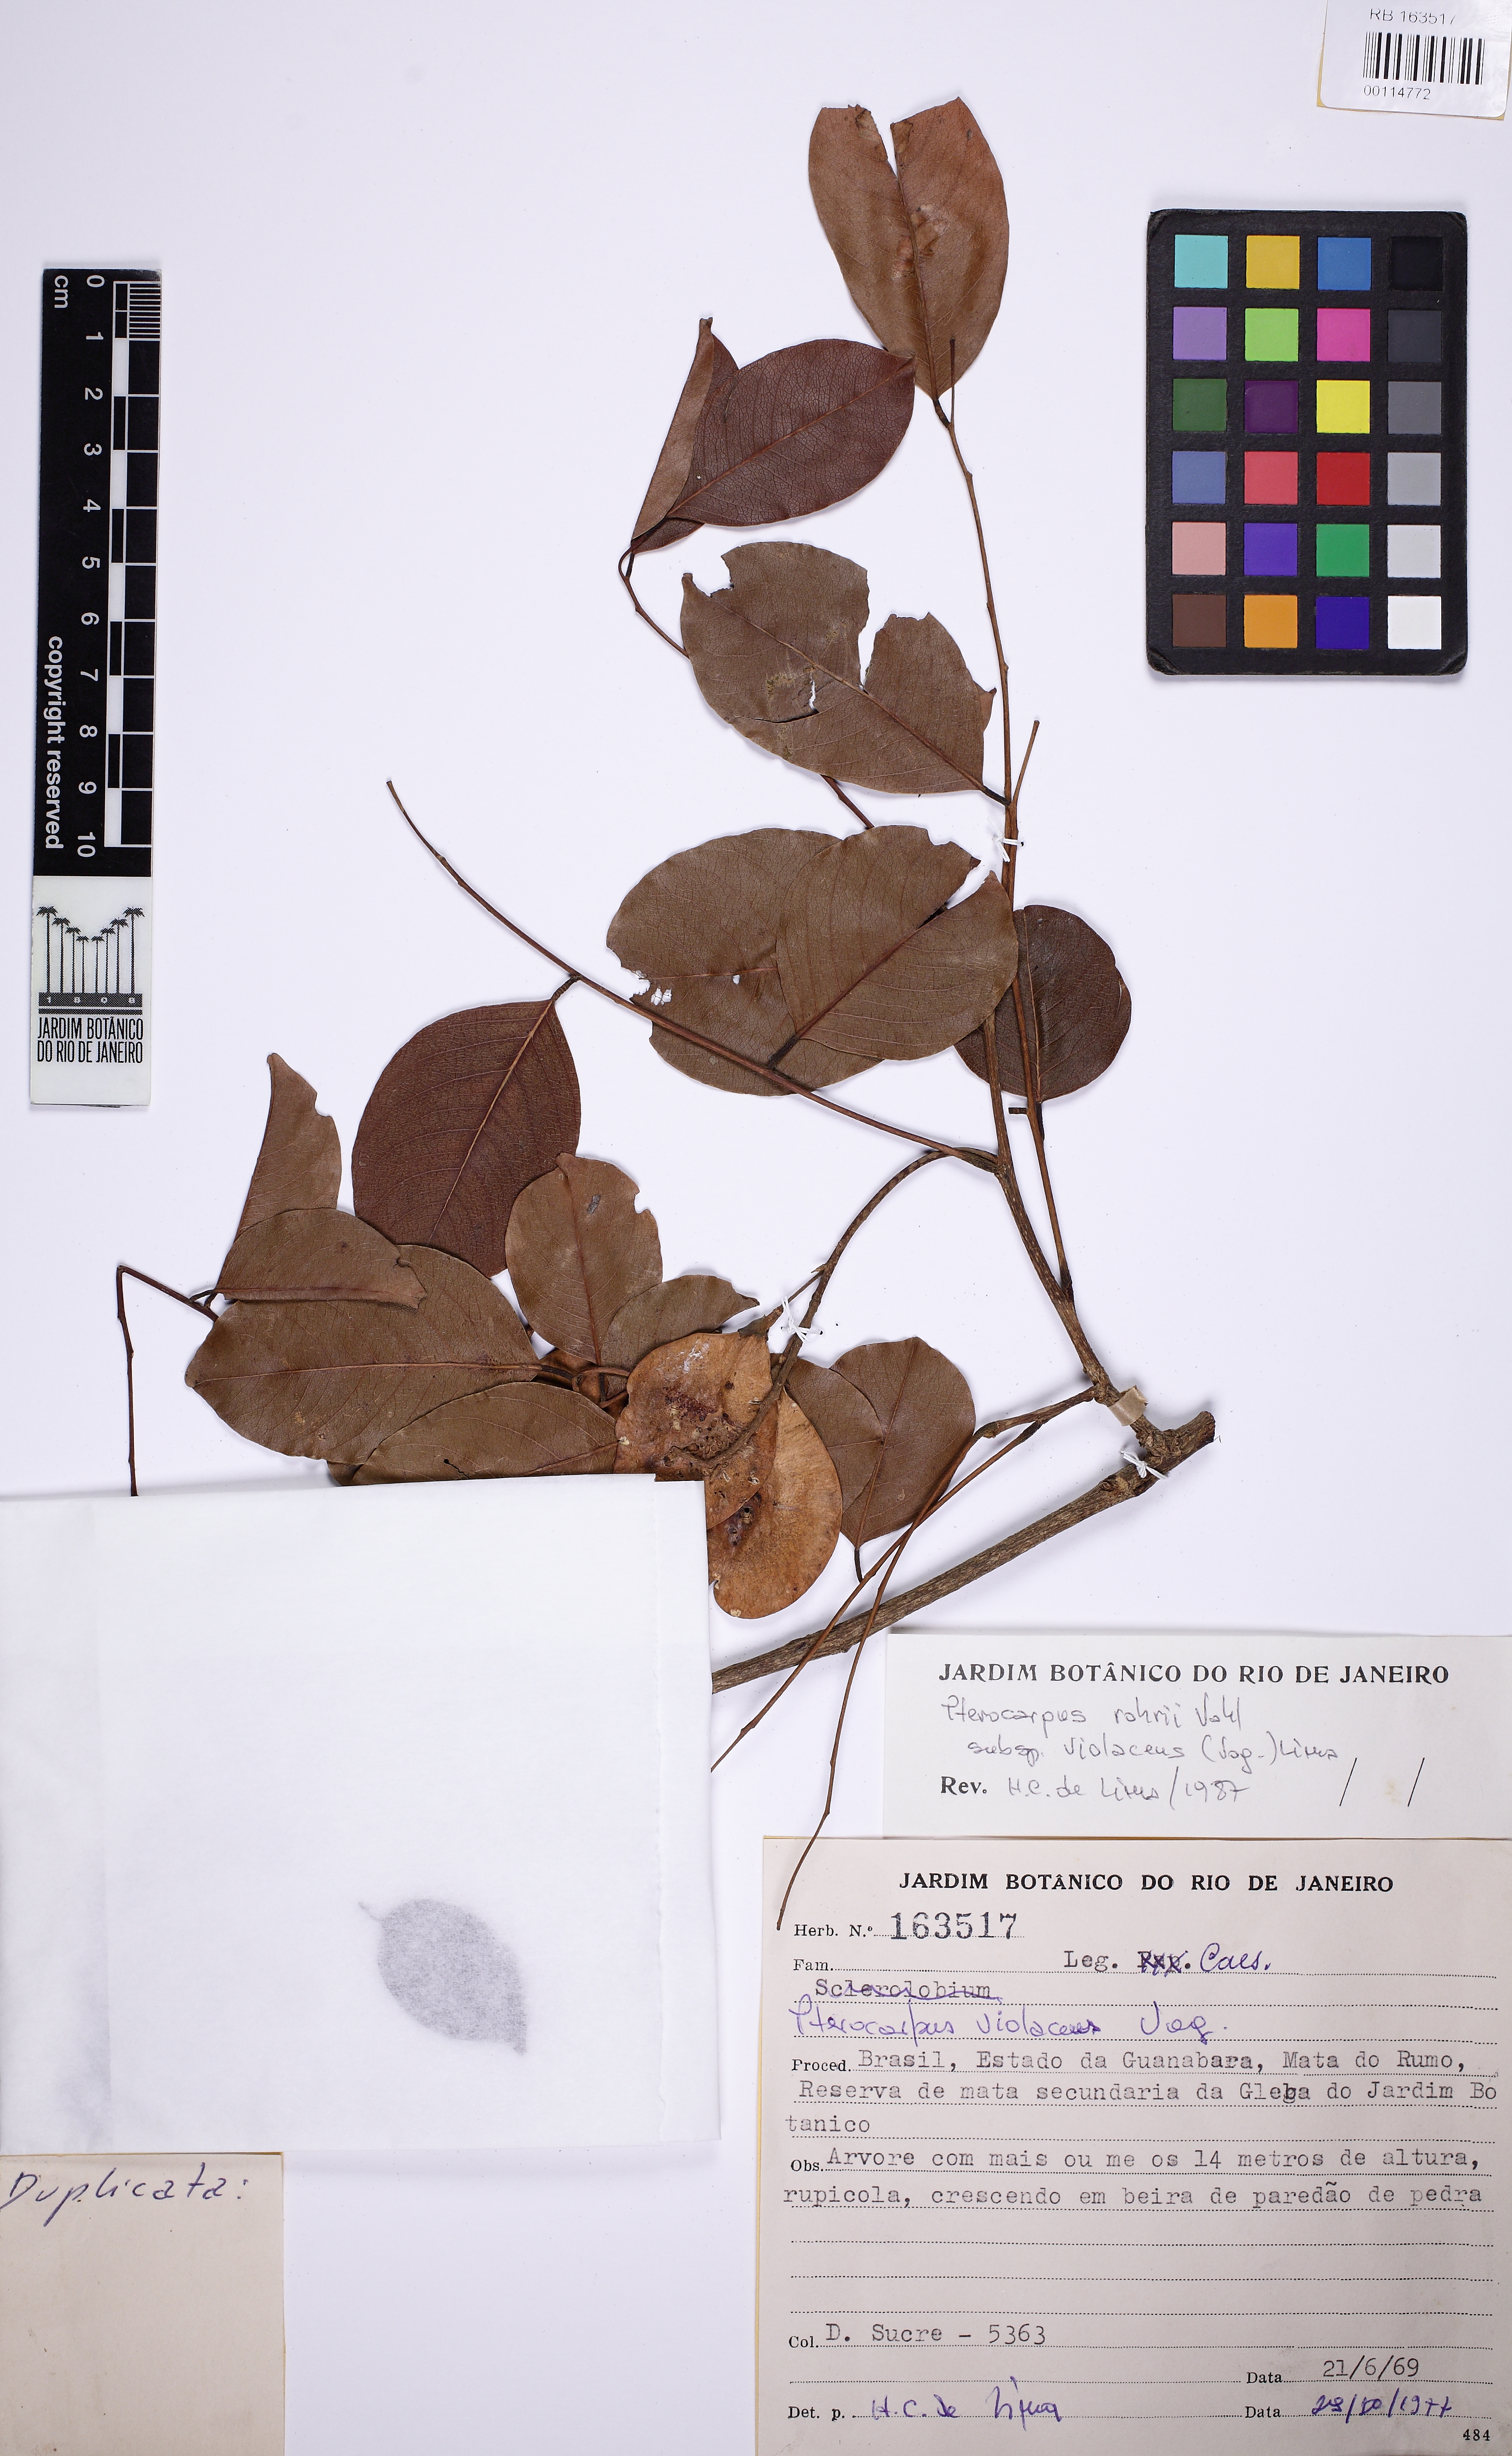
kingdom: Plantae
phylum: Tracheophyta
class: Magnoliopsida
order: Fabales
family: Fabaceae
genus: Pterocarpus
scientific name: Pterocarpus rohrii
